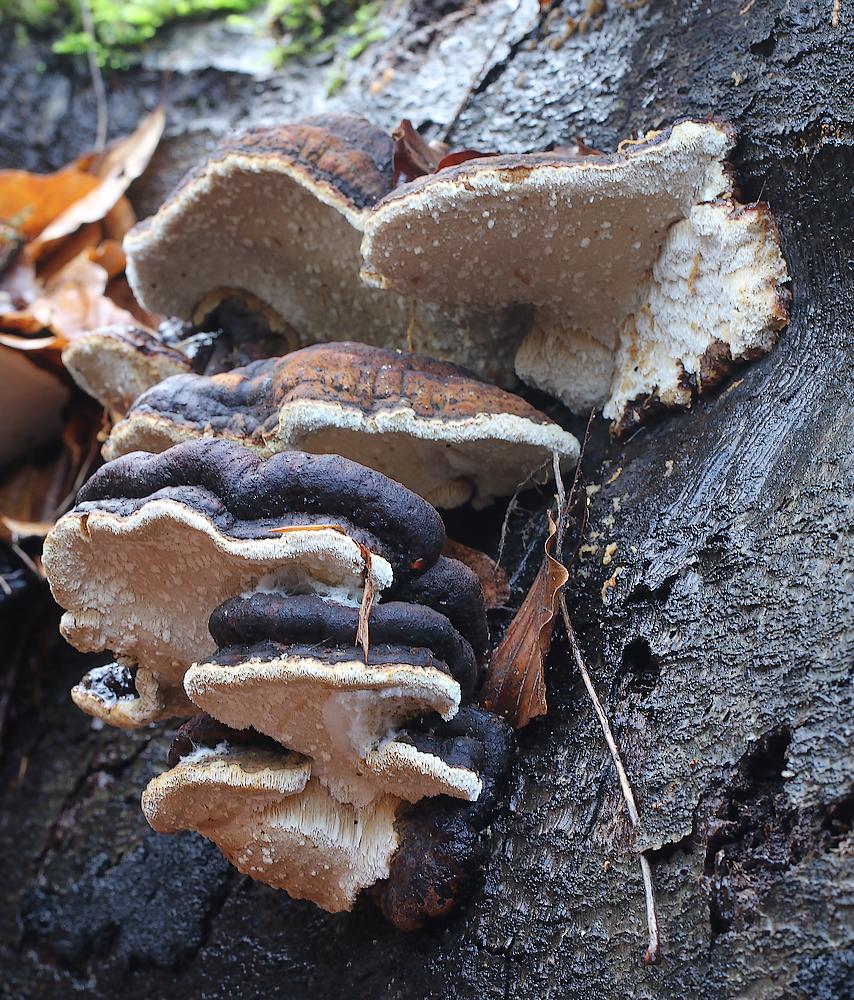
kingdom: Fungi
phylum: Basidiomycota
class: Agaricomycetes
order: Polyporales
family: Ischnodermataceae
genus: Ischnoderma
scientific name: Ischnoderma resinosum
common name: løv-tjæreporesvamp
